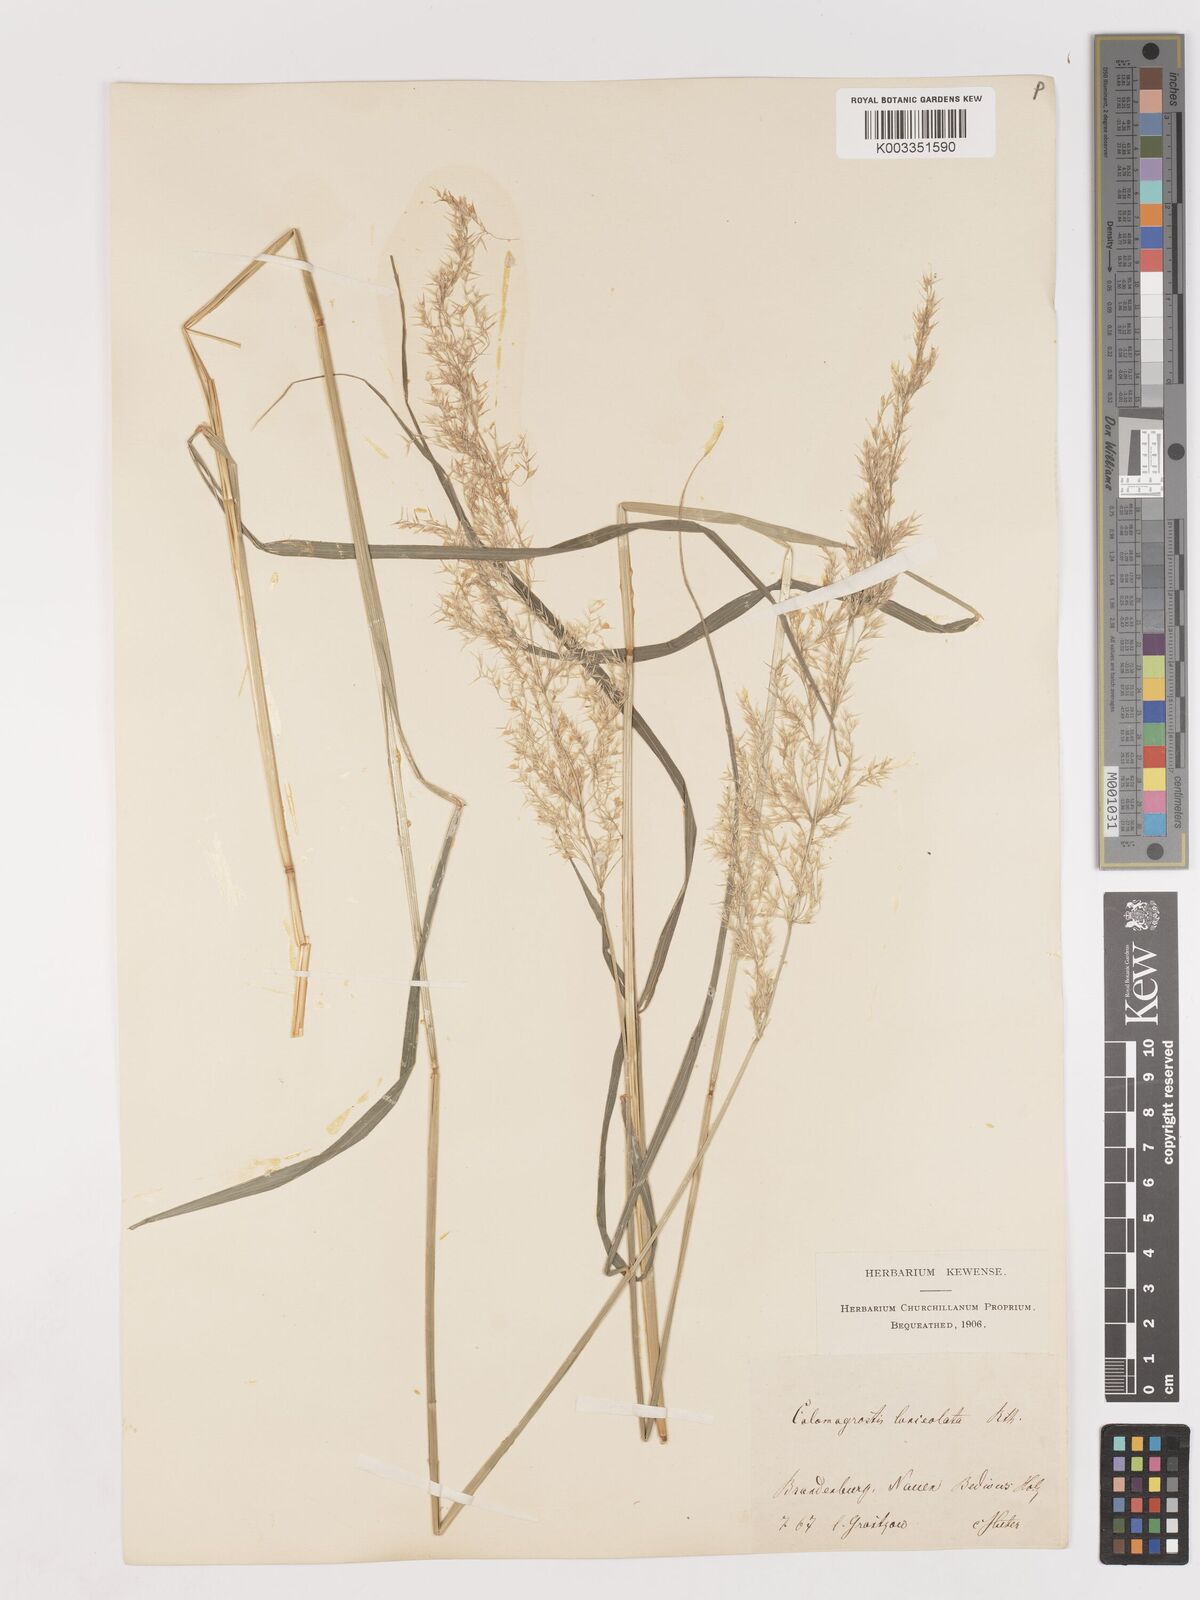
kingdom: Plantae
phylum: Tracheophyta
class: Liliopsida
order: Poales
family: Poaceae
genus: Calamagrostis
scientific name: Calamagrostis canescens
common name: Purple small-reed
